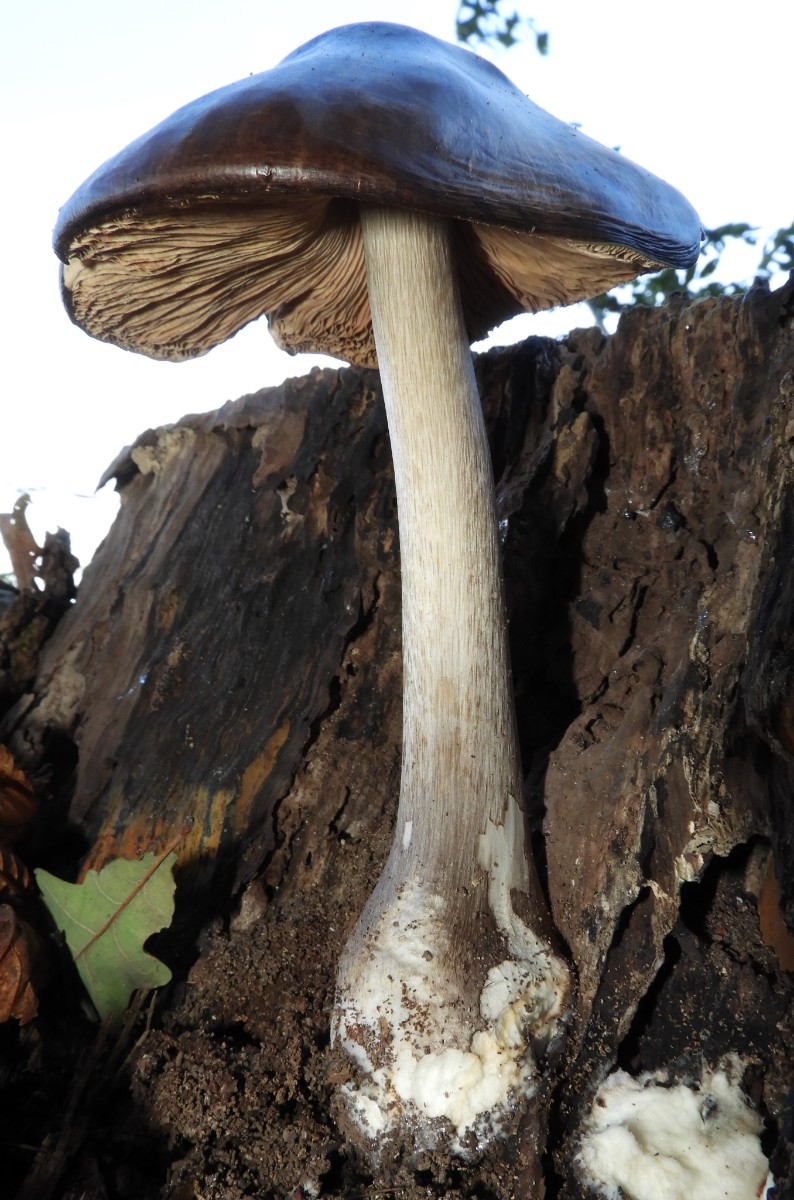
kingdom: Fungi
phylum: Basidiomycota
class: Agaricomycetes
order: Agaricales
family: Pluteaceae
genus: Pluteus
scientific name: Pluteus cervinus
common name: sodfarvet skærmhat
